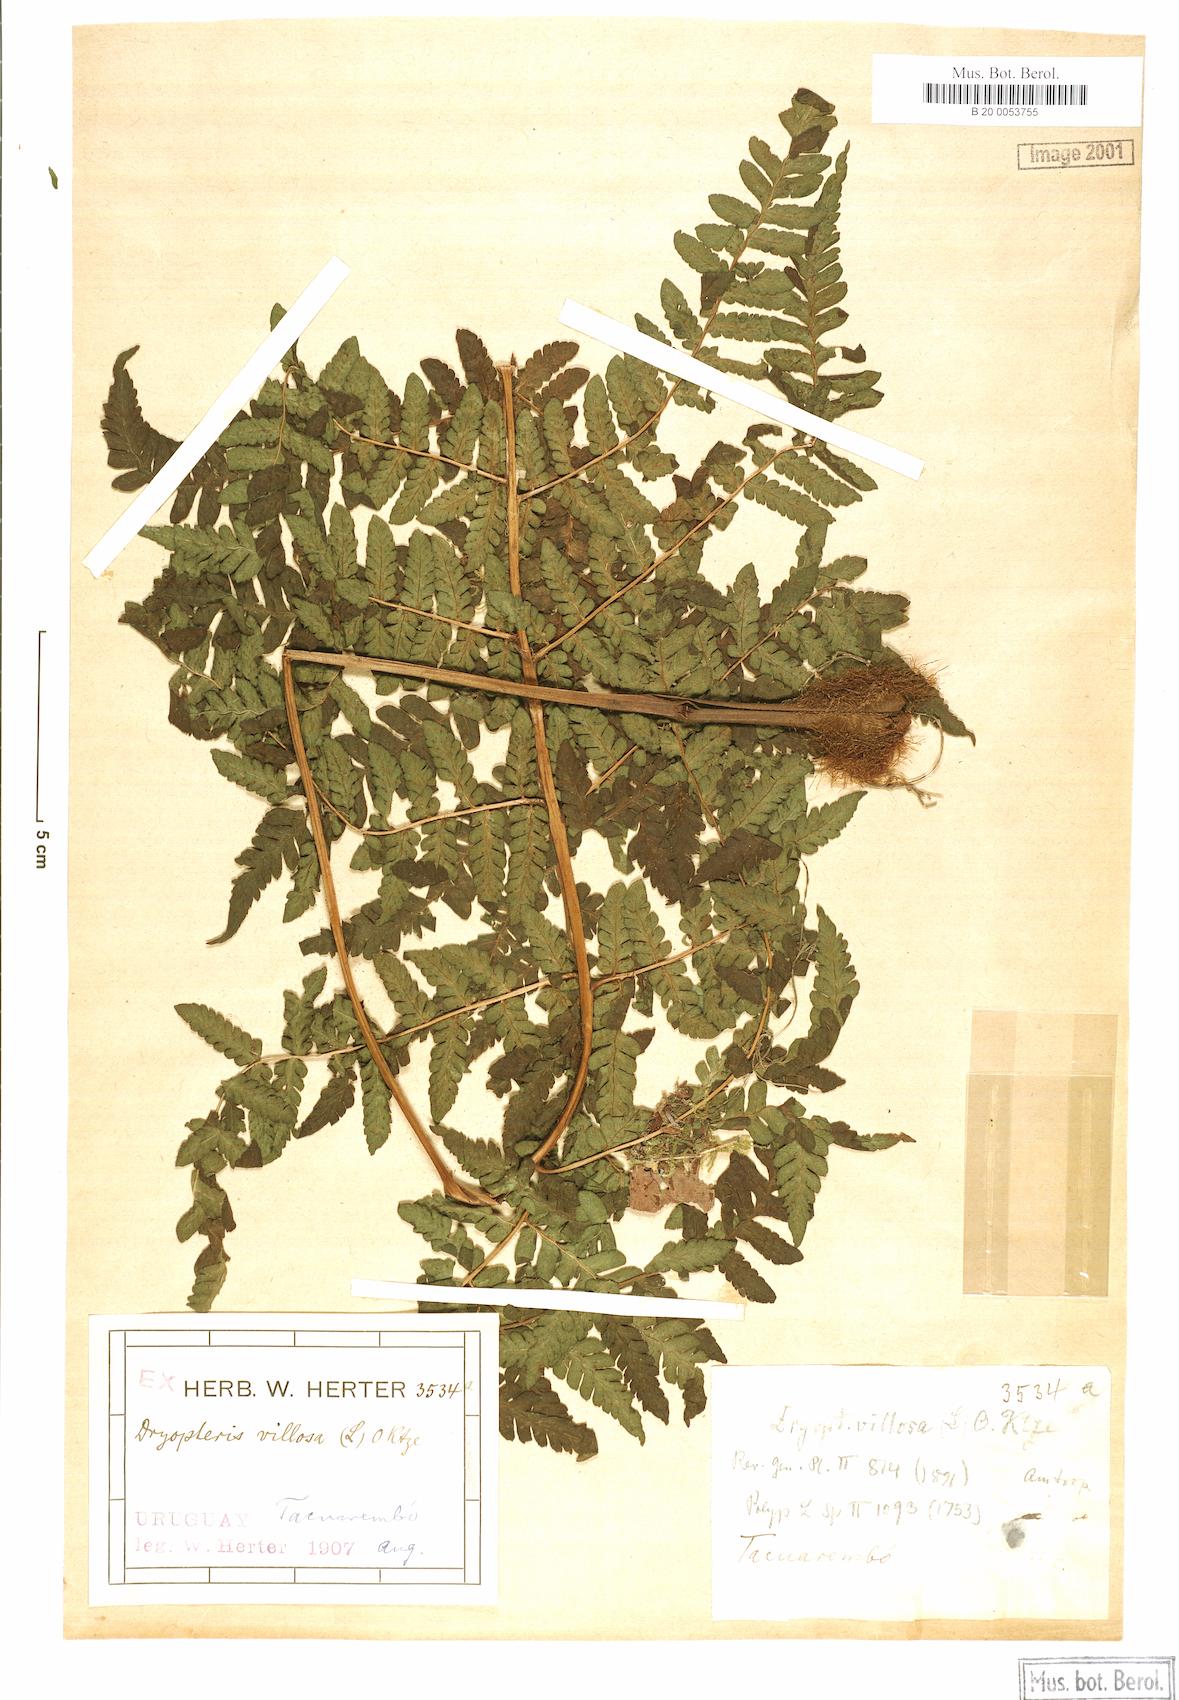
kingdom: Plantae
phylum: Tracheophyta
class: Polypodiopsida
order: Polypodiales
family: Dryopteridaceae
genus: Megalastrum
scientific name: Megalastrum villosum
